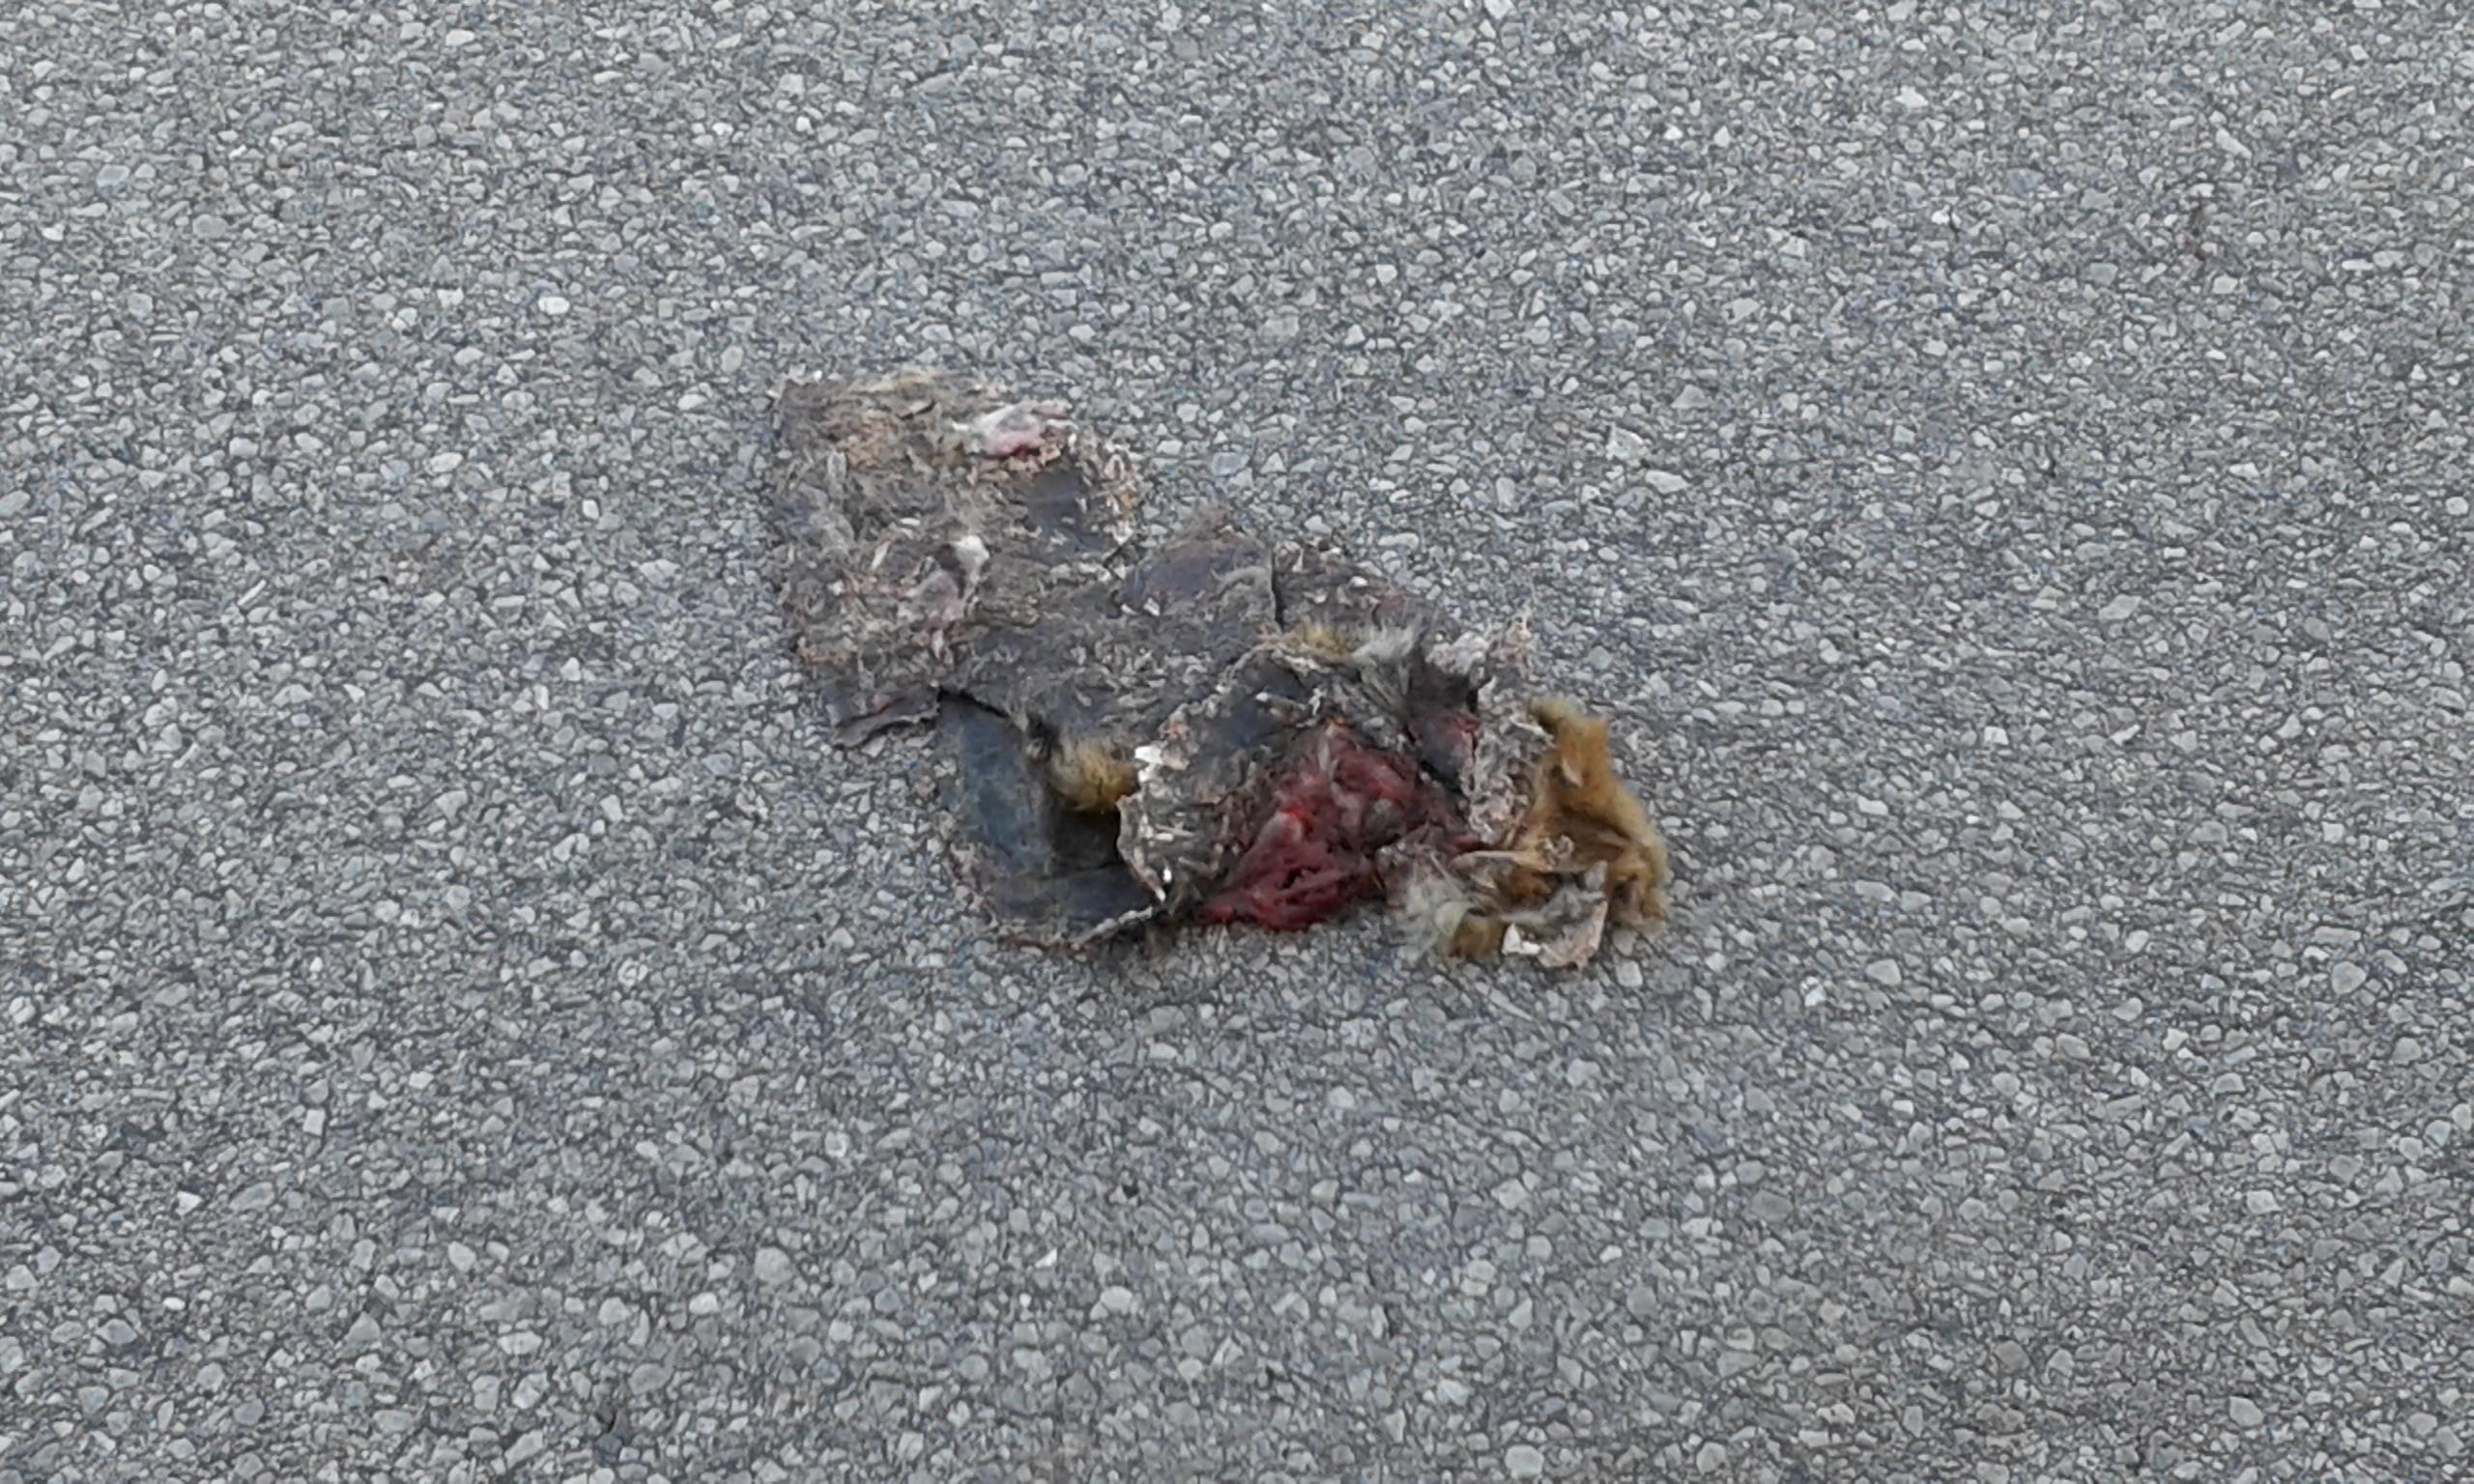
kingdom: Animalia
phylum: Chordata
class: Mammalia
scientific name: Mammalia
